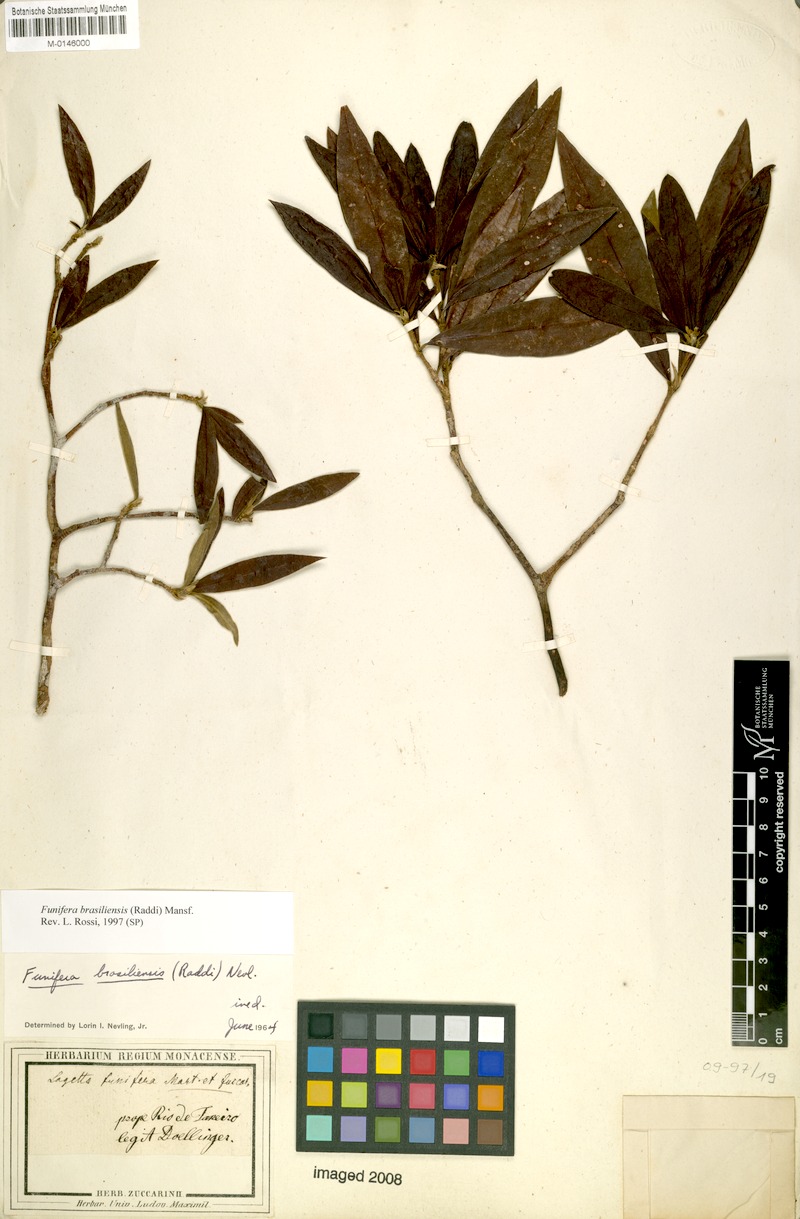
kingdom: Plantae
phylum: Tracheophyta
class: Magnoliopsida
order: Malvales
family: Thymelaeaceae
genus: Funifera
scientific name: Funifera brasiliensis
